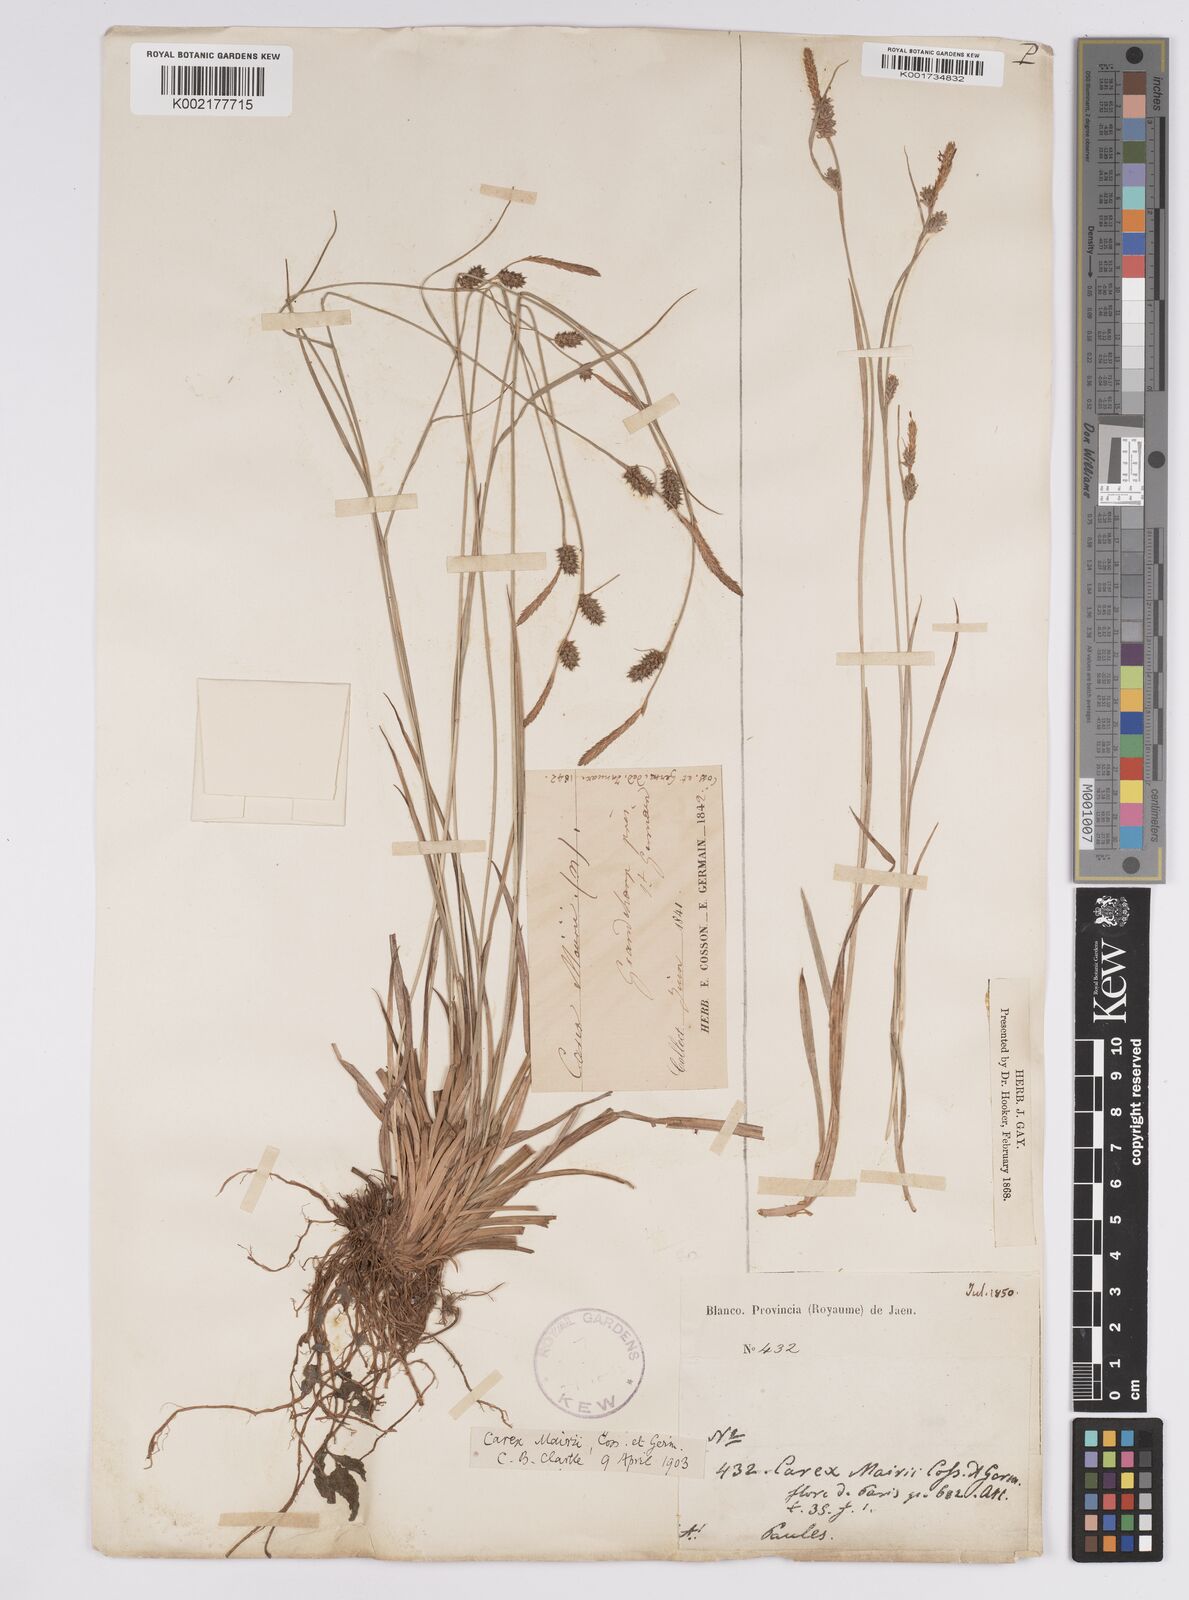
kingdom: Plantae
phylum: Tracheophyta
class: Liliopsida
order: Poales
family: Cyperaceae
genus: Carex
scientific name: Carex mairei
